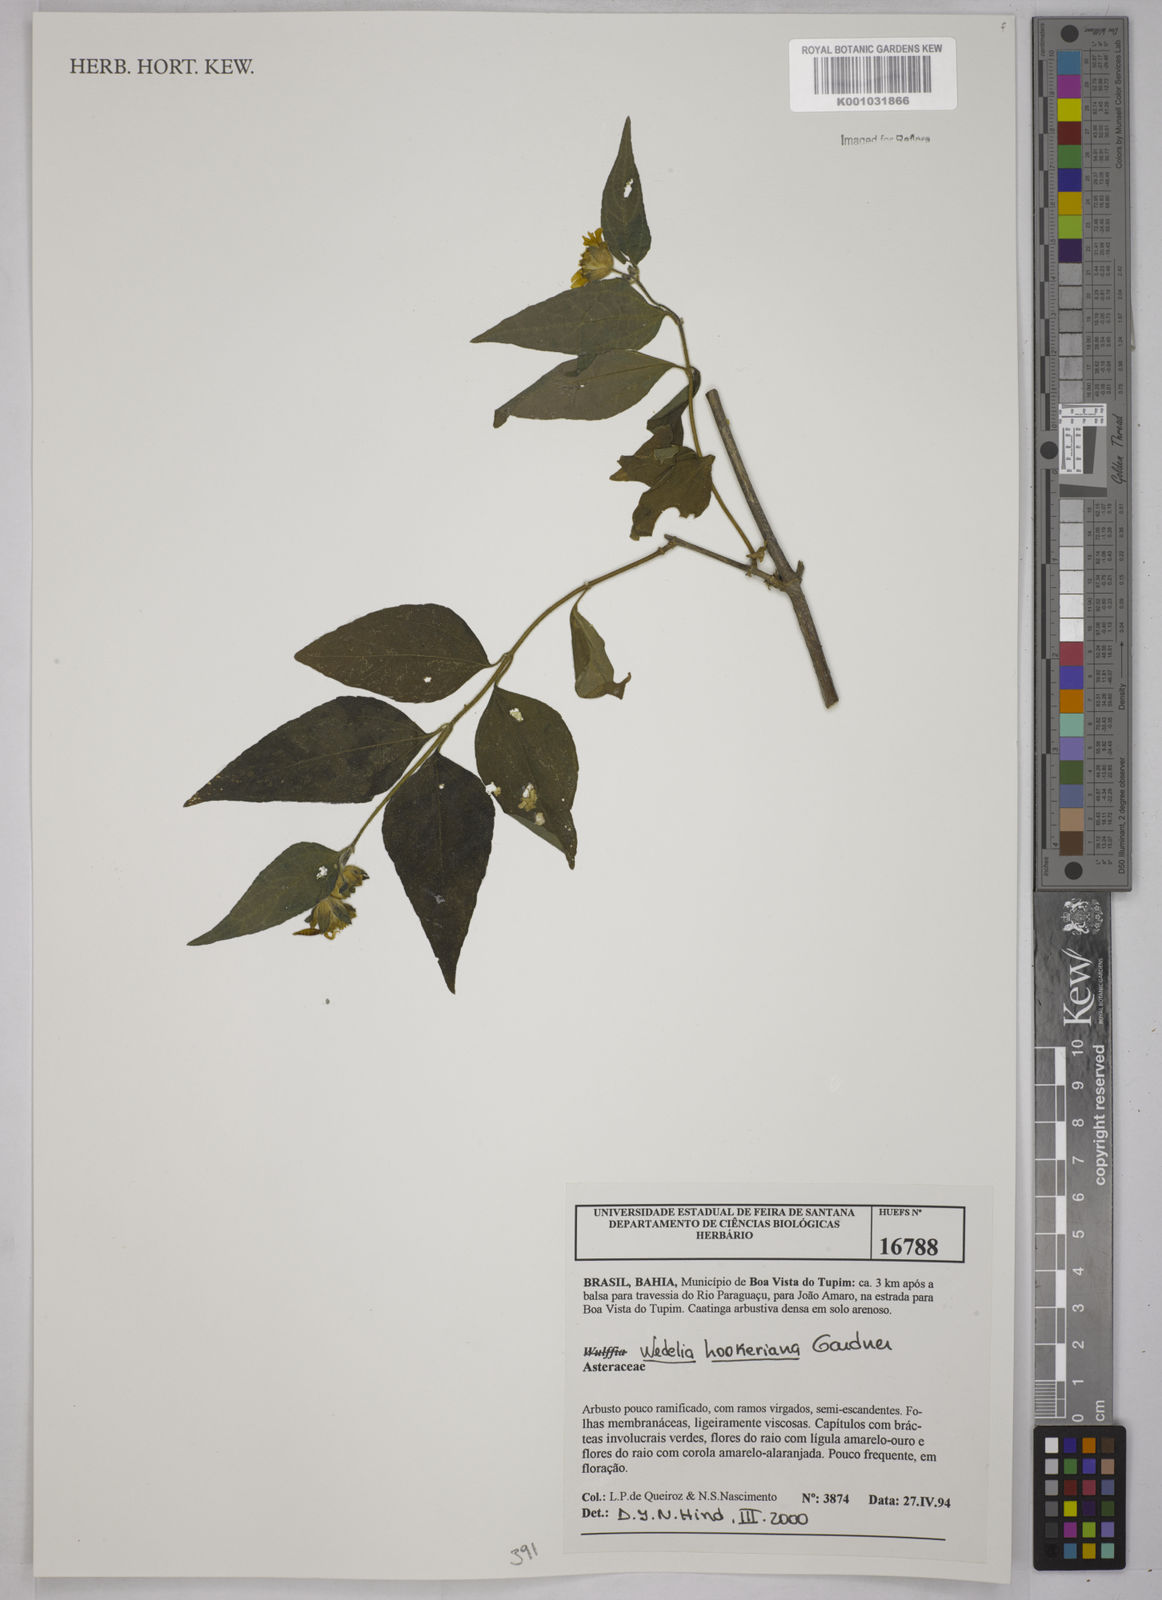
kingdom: Plantae
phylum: Tracheophyta
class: Magnoliopsida
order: Asterales
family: Asteraceae
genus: Wedelia
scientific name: Wedelia hookeriana
